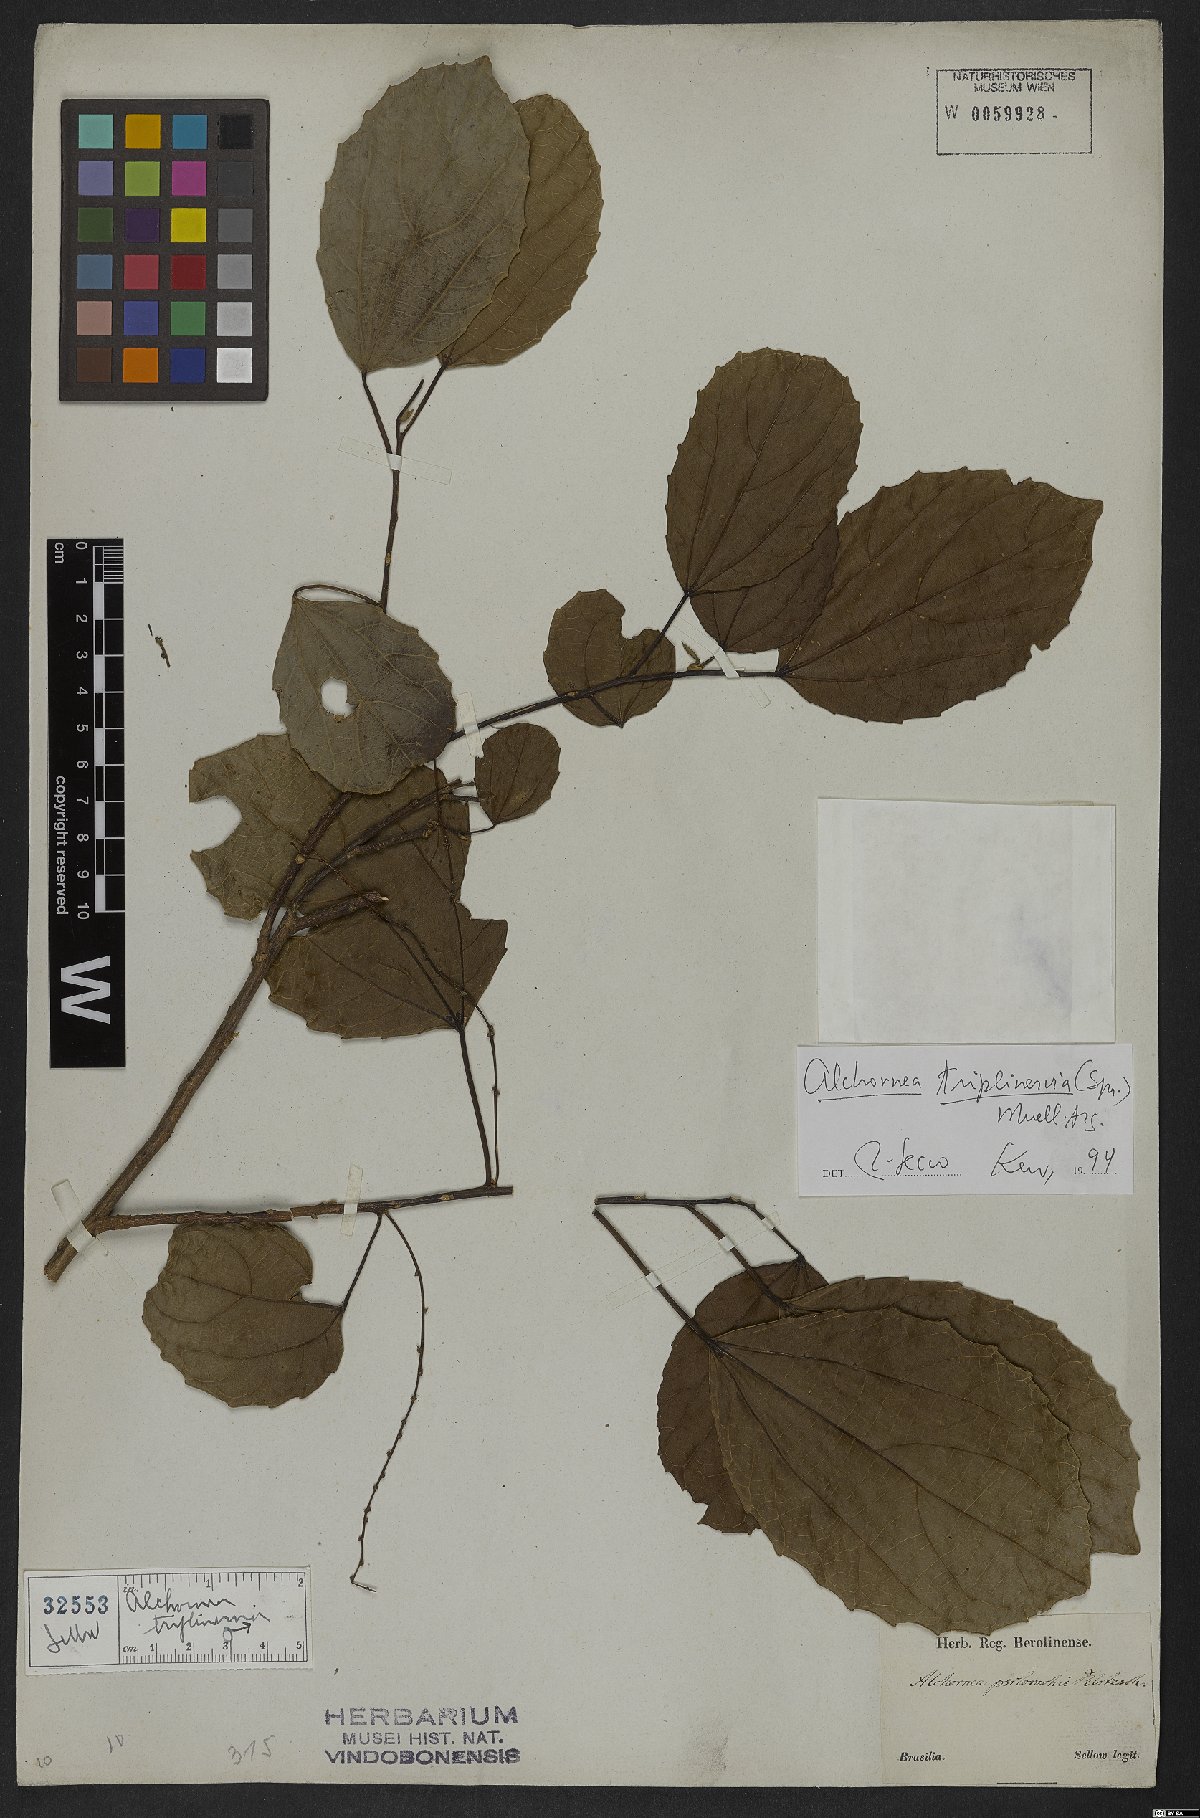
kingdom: Plantae
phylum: Tracheophyta
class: Magnoliopsida
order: Malpighiales
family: Euphorbiaceae
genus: Alchornea
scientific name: Alchornea triplinervia
